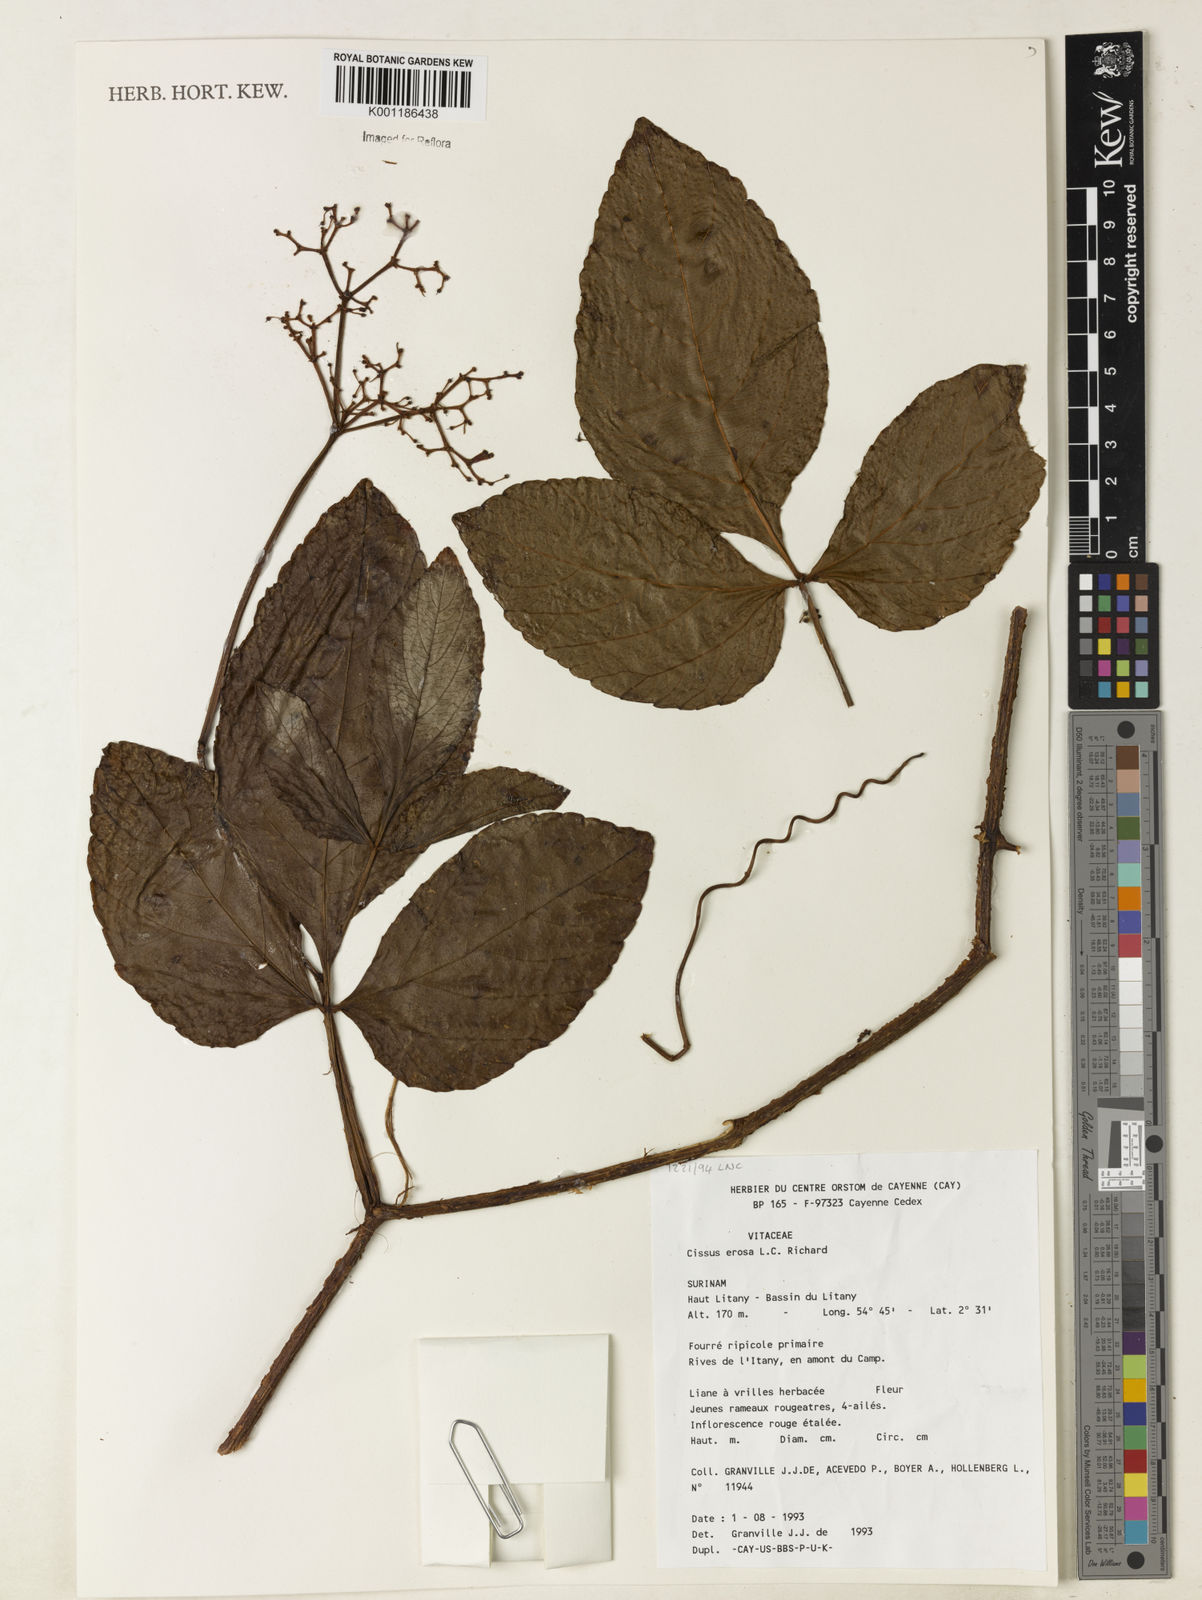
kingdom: Plantae
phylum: Tracheophyta
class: Magnoliopsida
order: Vitales
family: Vitaceae
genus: Cissus
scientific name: Cissus erosa
